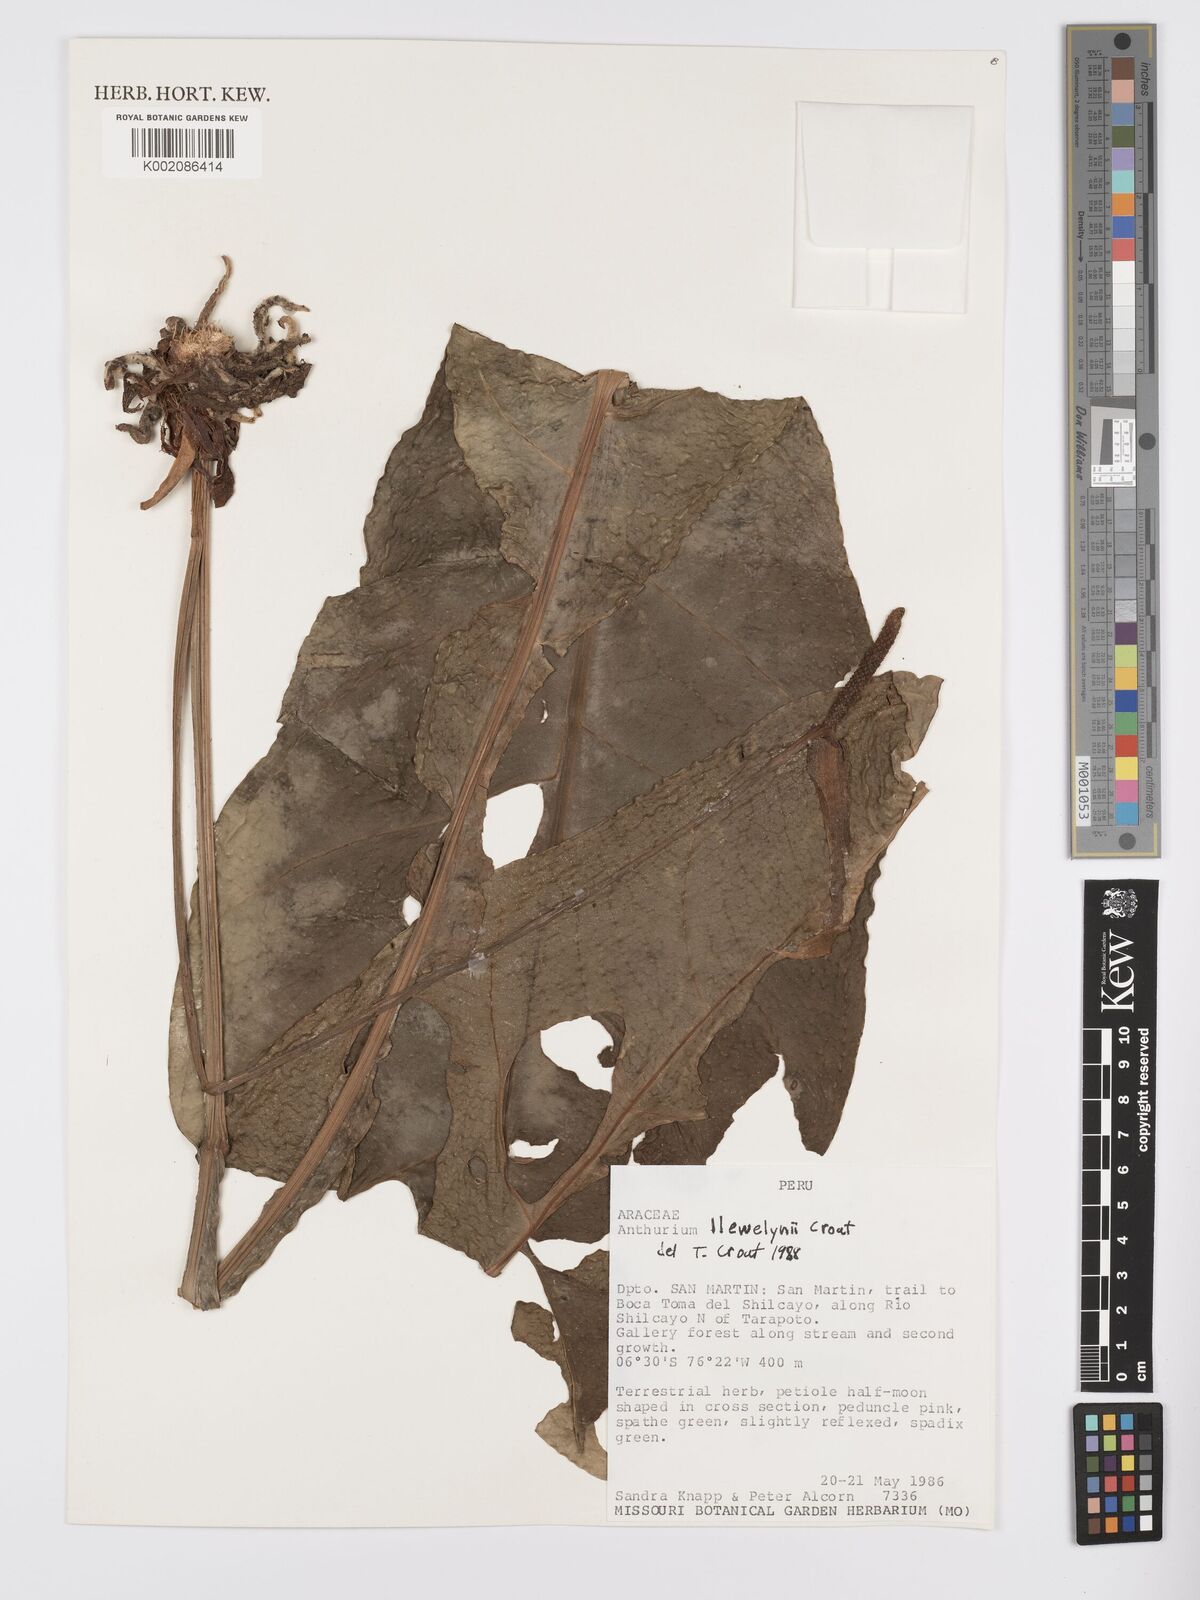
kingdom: Plantae
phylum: Tracheophyta
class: Liliopsida
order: Alismatales
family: Araceae
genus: Anthurium
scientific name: Anthurium llewellynii
